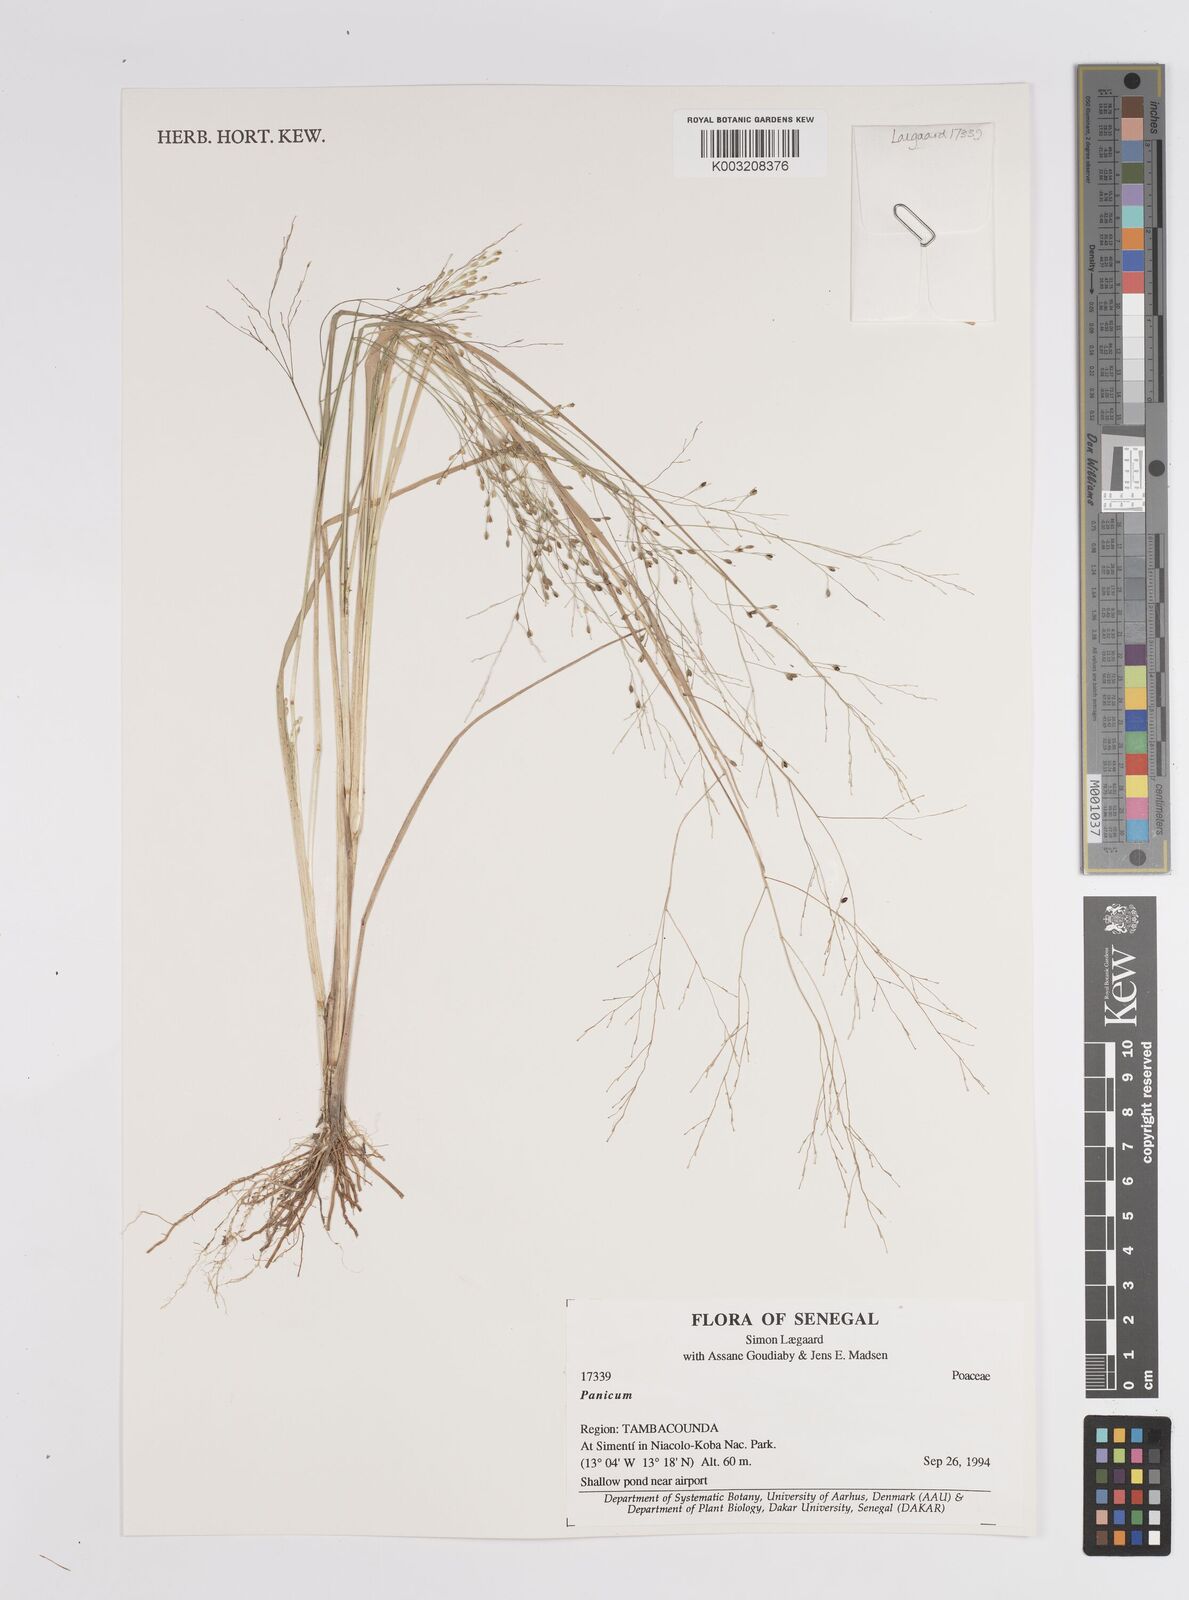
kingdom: Plantae
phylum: Tracheophyta
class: Liliopsida
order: Poales
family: Poaceae
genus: Panicum
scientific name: Panicum
